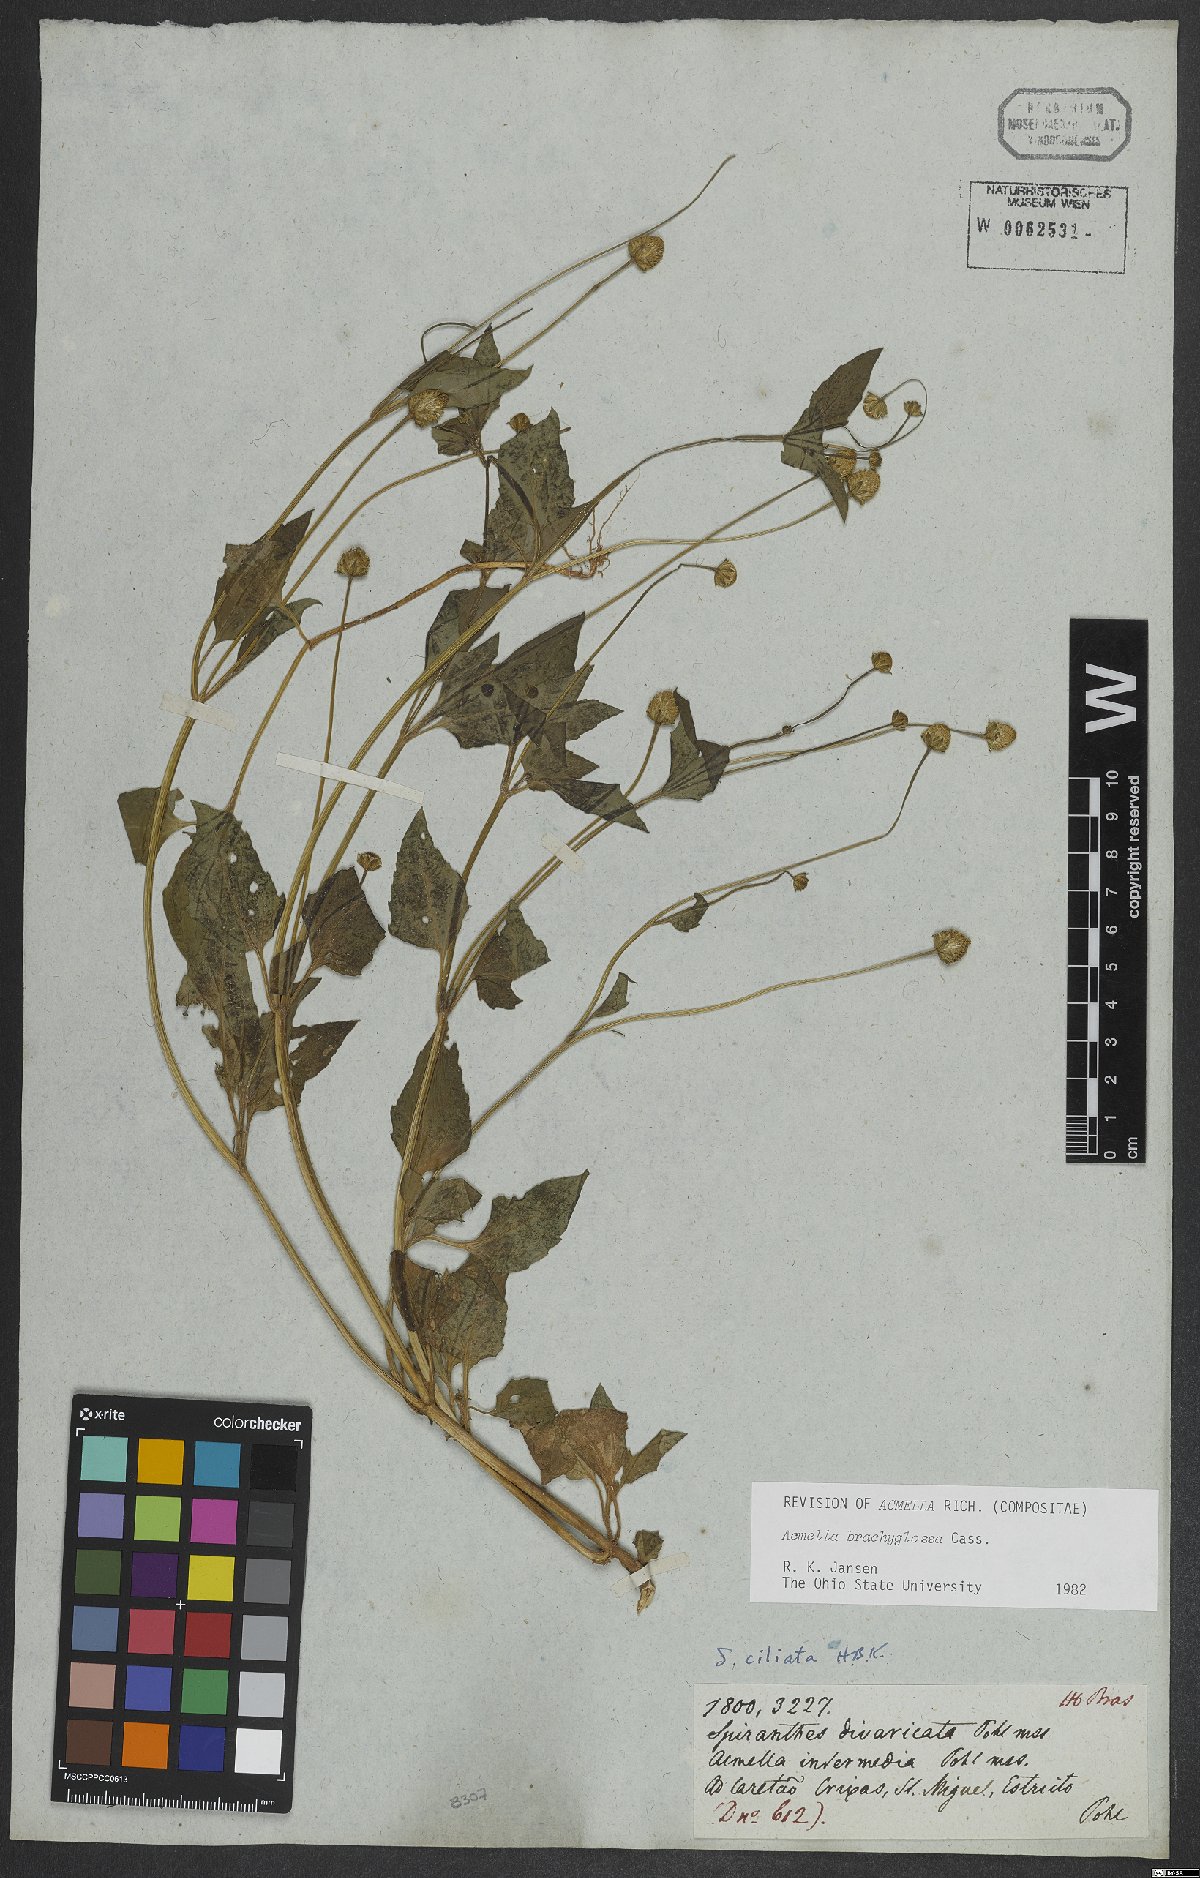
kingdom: Plantae
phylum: Tracheophyta
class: Magnoliopsida
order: Asterales
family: Asteraceae
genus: Acmella
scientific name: Acmella brachyglossa
